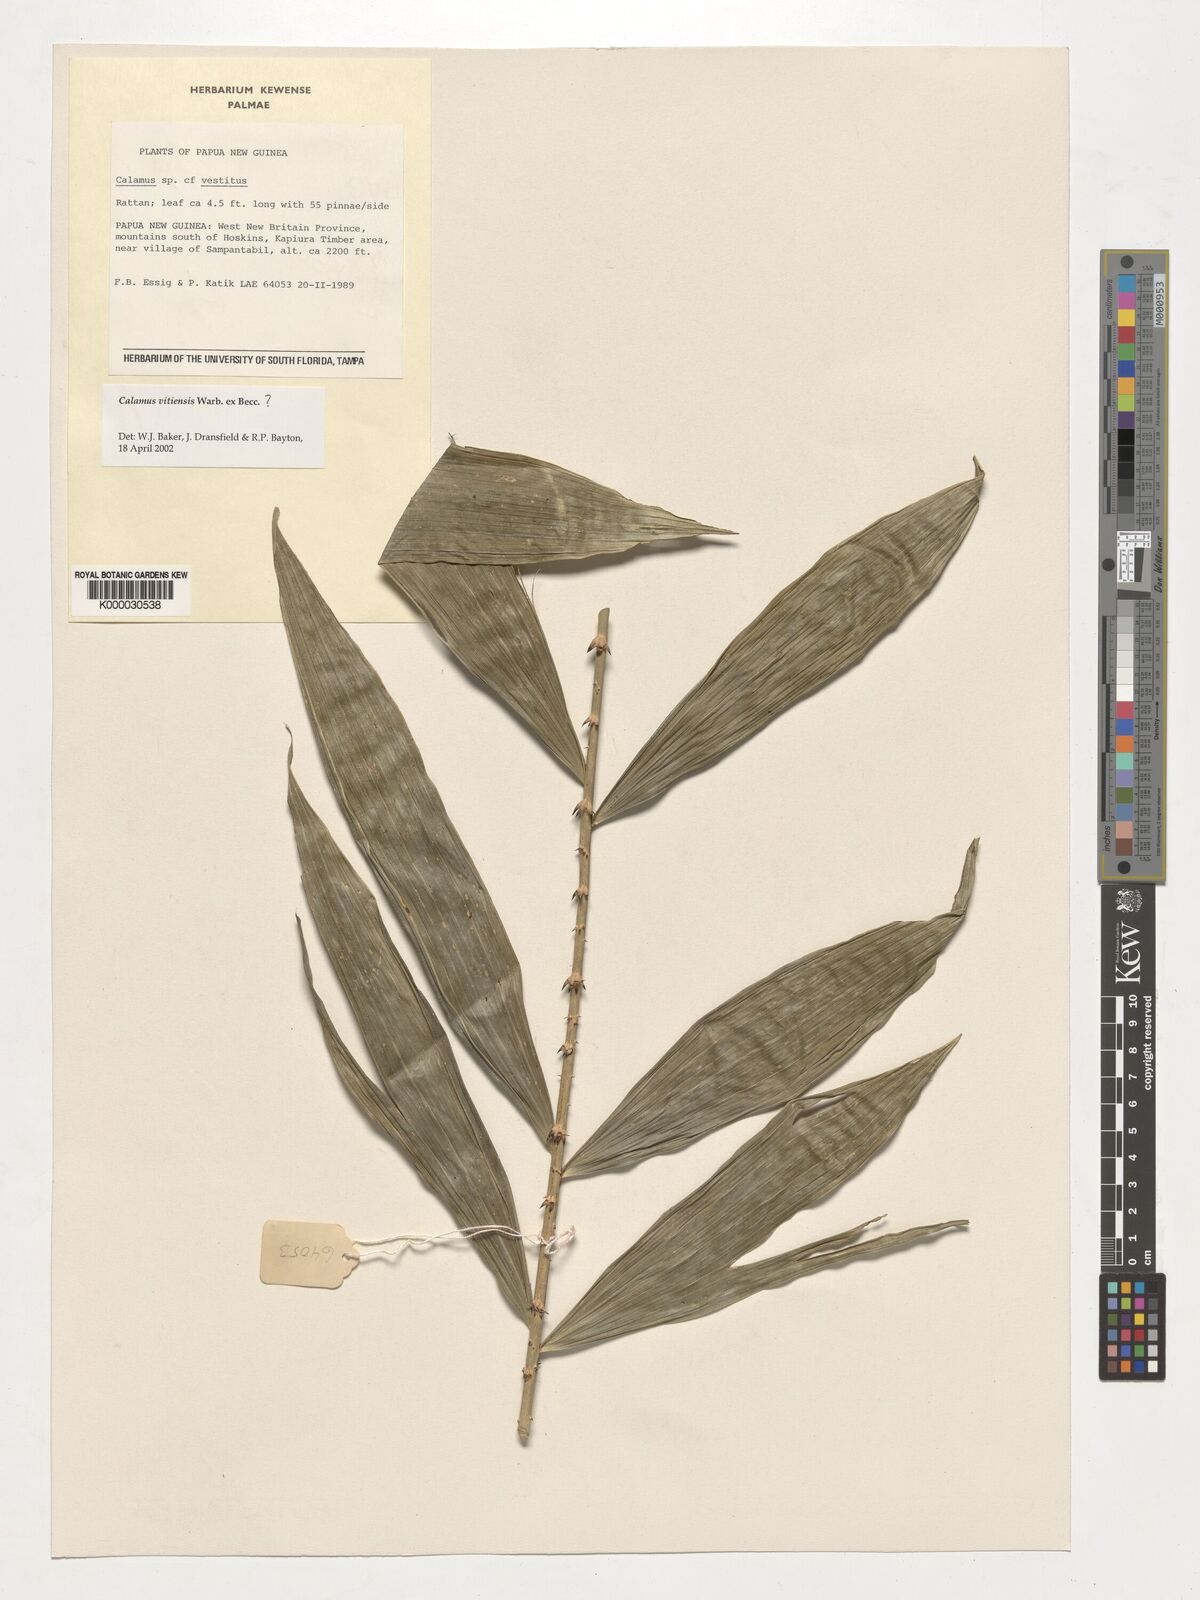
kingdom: Plantae
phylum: Tracheophyta
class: Liliopsida
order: Arecales
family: Arecaceae
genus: Calamus
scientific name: Calamus
